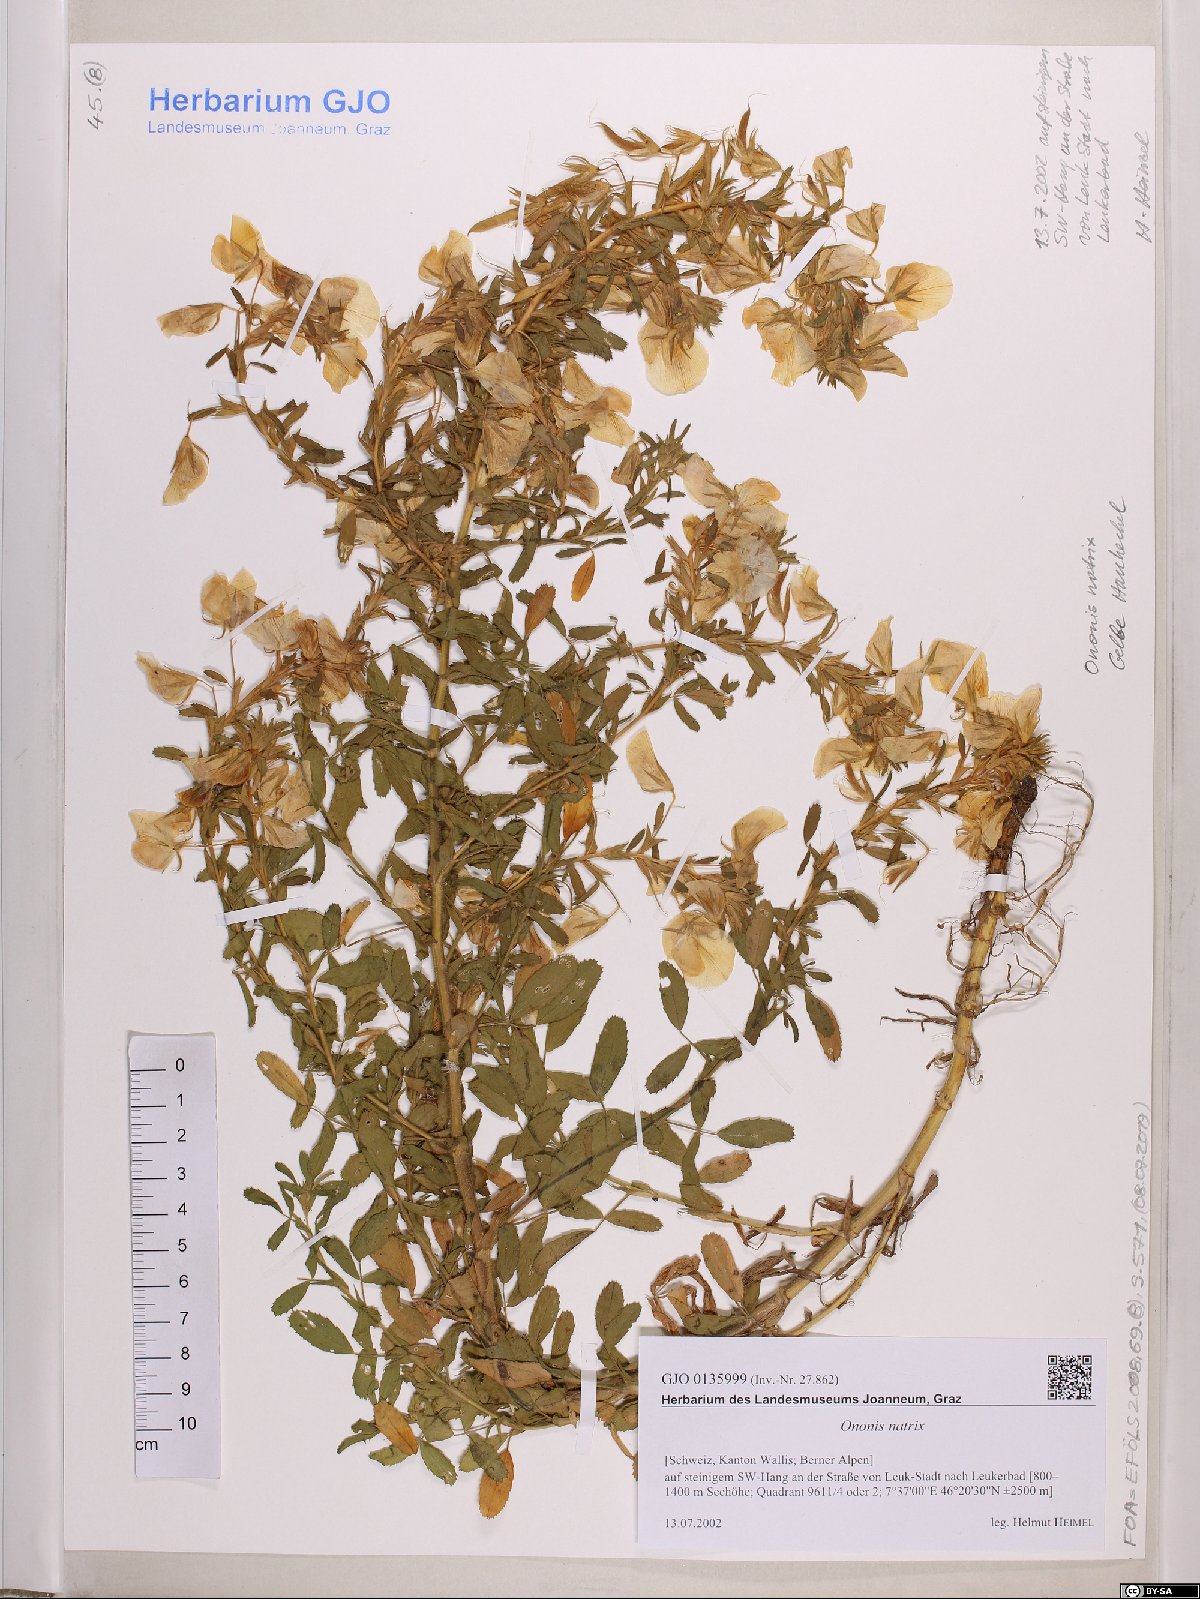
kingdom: Plantae
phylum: Tracheophyta
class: Magnoliopsida
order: Fabales
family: Fabaceae
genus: Ononis
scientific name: Ononis natrix
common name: Yellow restharrow
